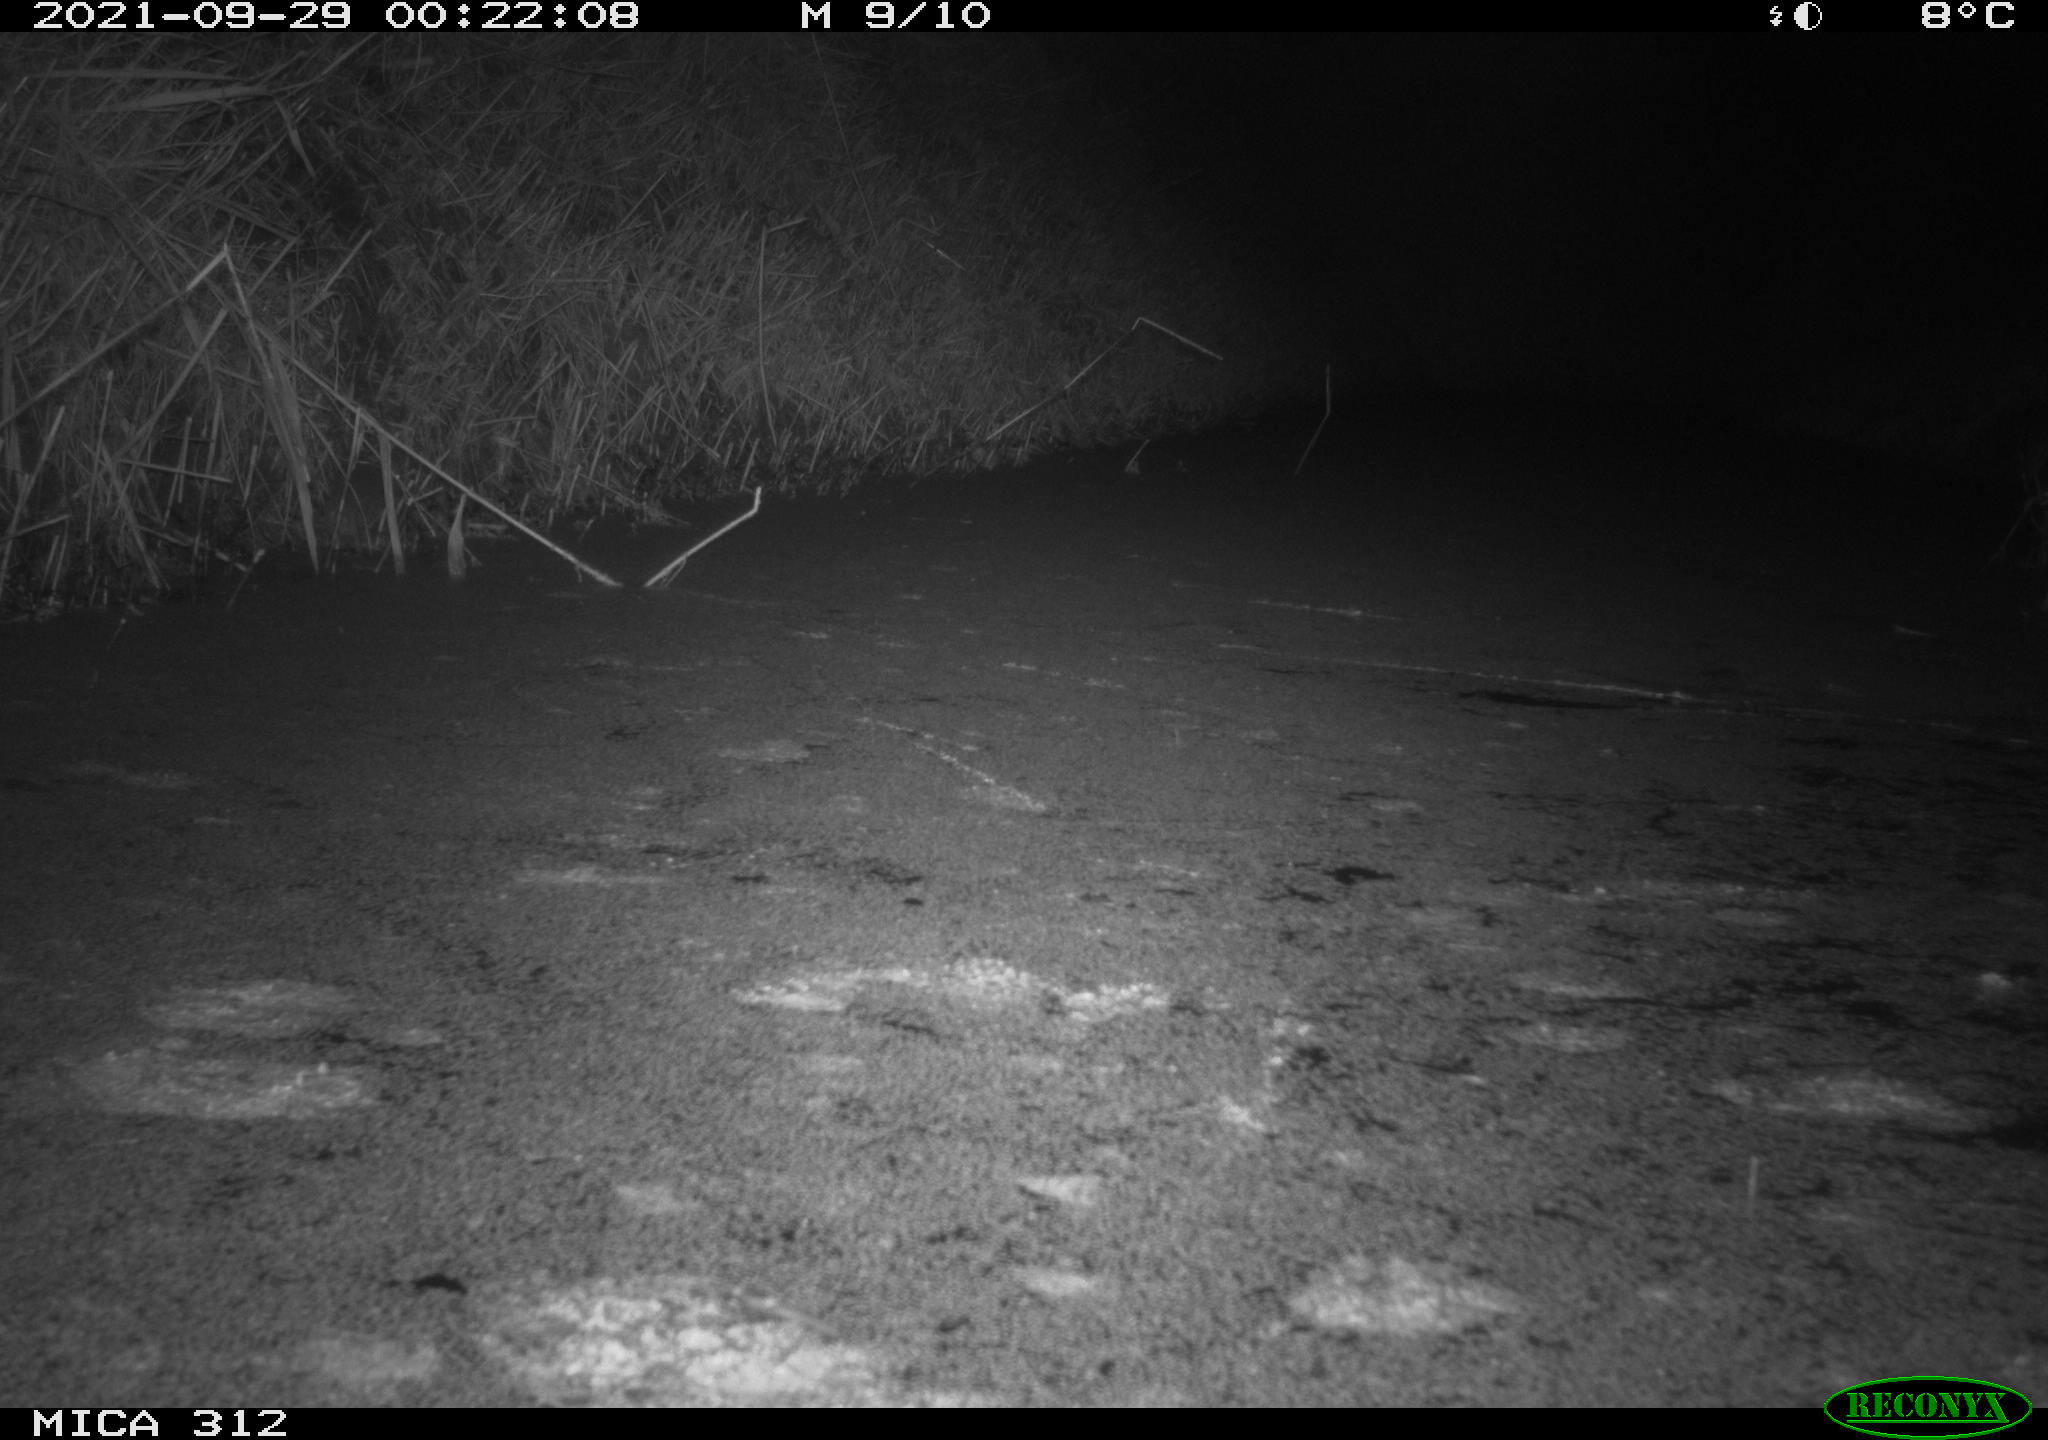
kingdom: Animalia
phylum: Chordata
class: Mammalia
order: Rodentia
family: Muridae
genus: Rattus
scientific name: Rattus norvegicus
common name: Brown rat
